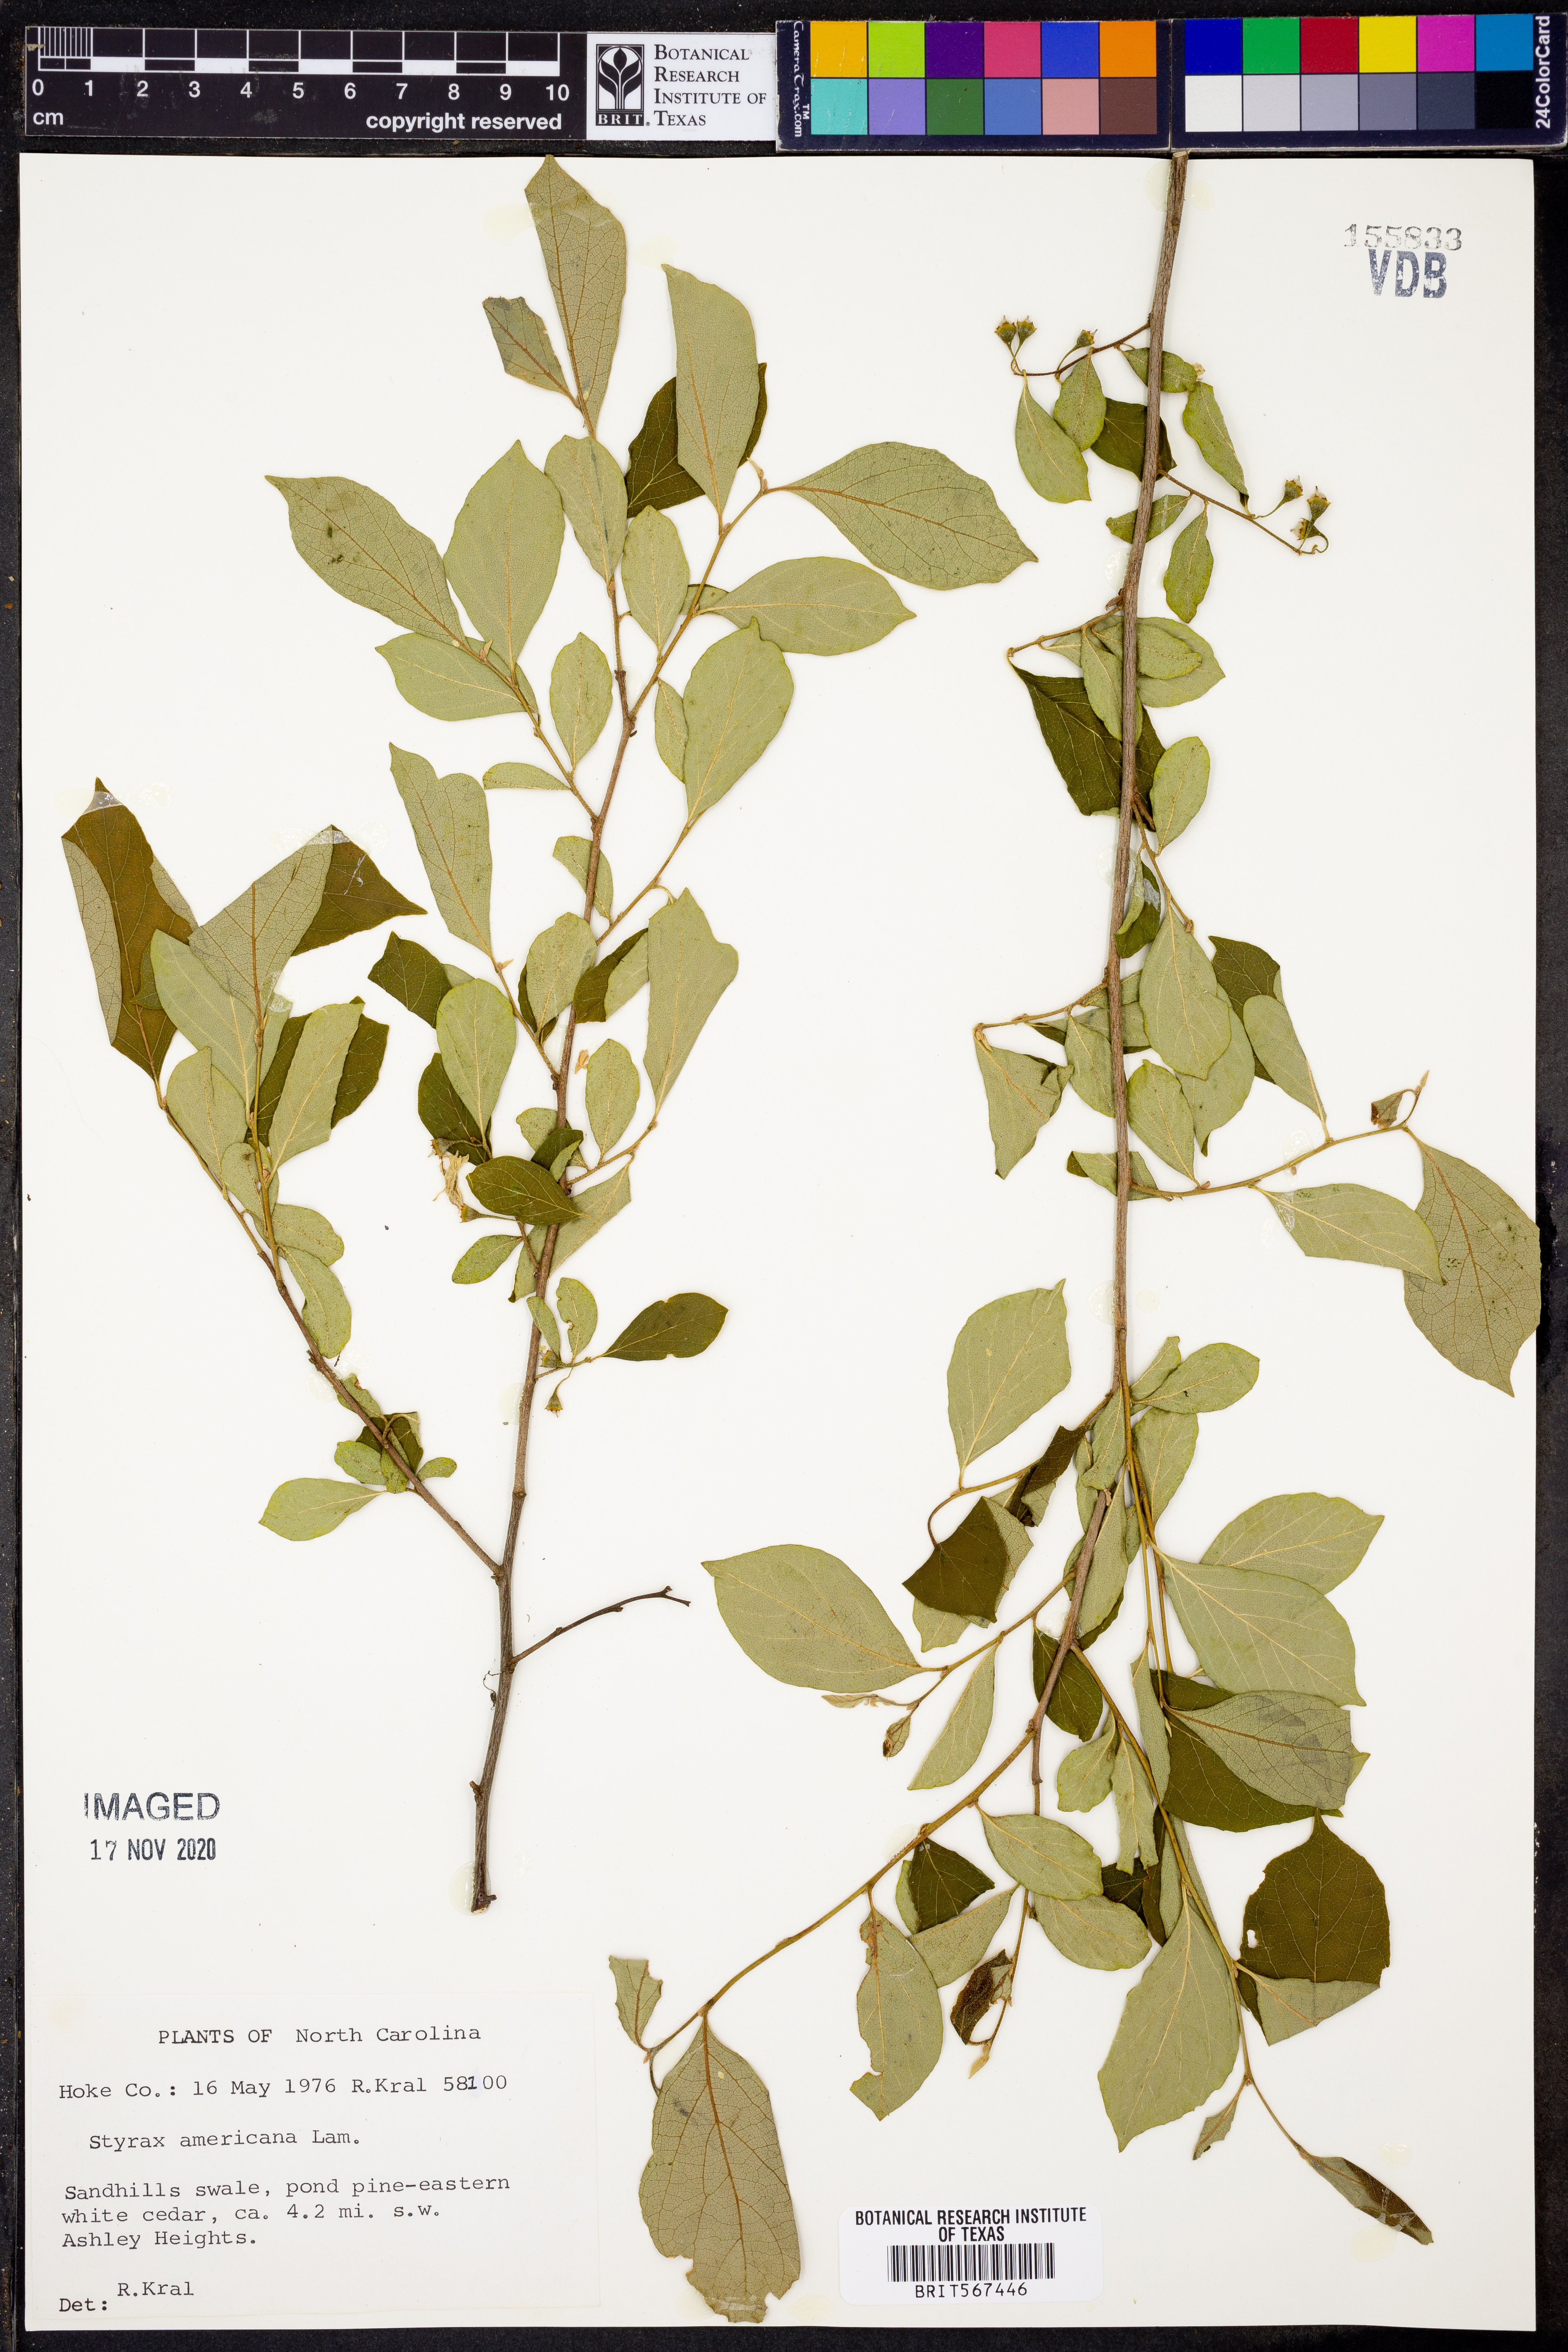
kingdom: Plantae
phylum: Tracheophyta
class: Magnoliopsida
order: Ericales
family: Styracaceae
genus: Styrax
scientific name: Styrax americanus
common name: American snowbell
